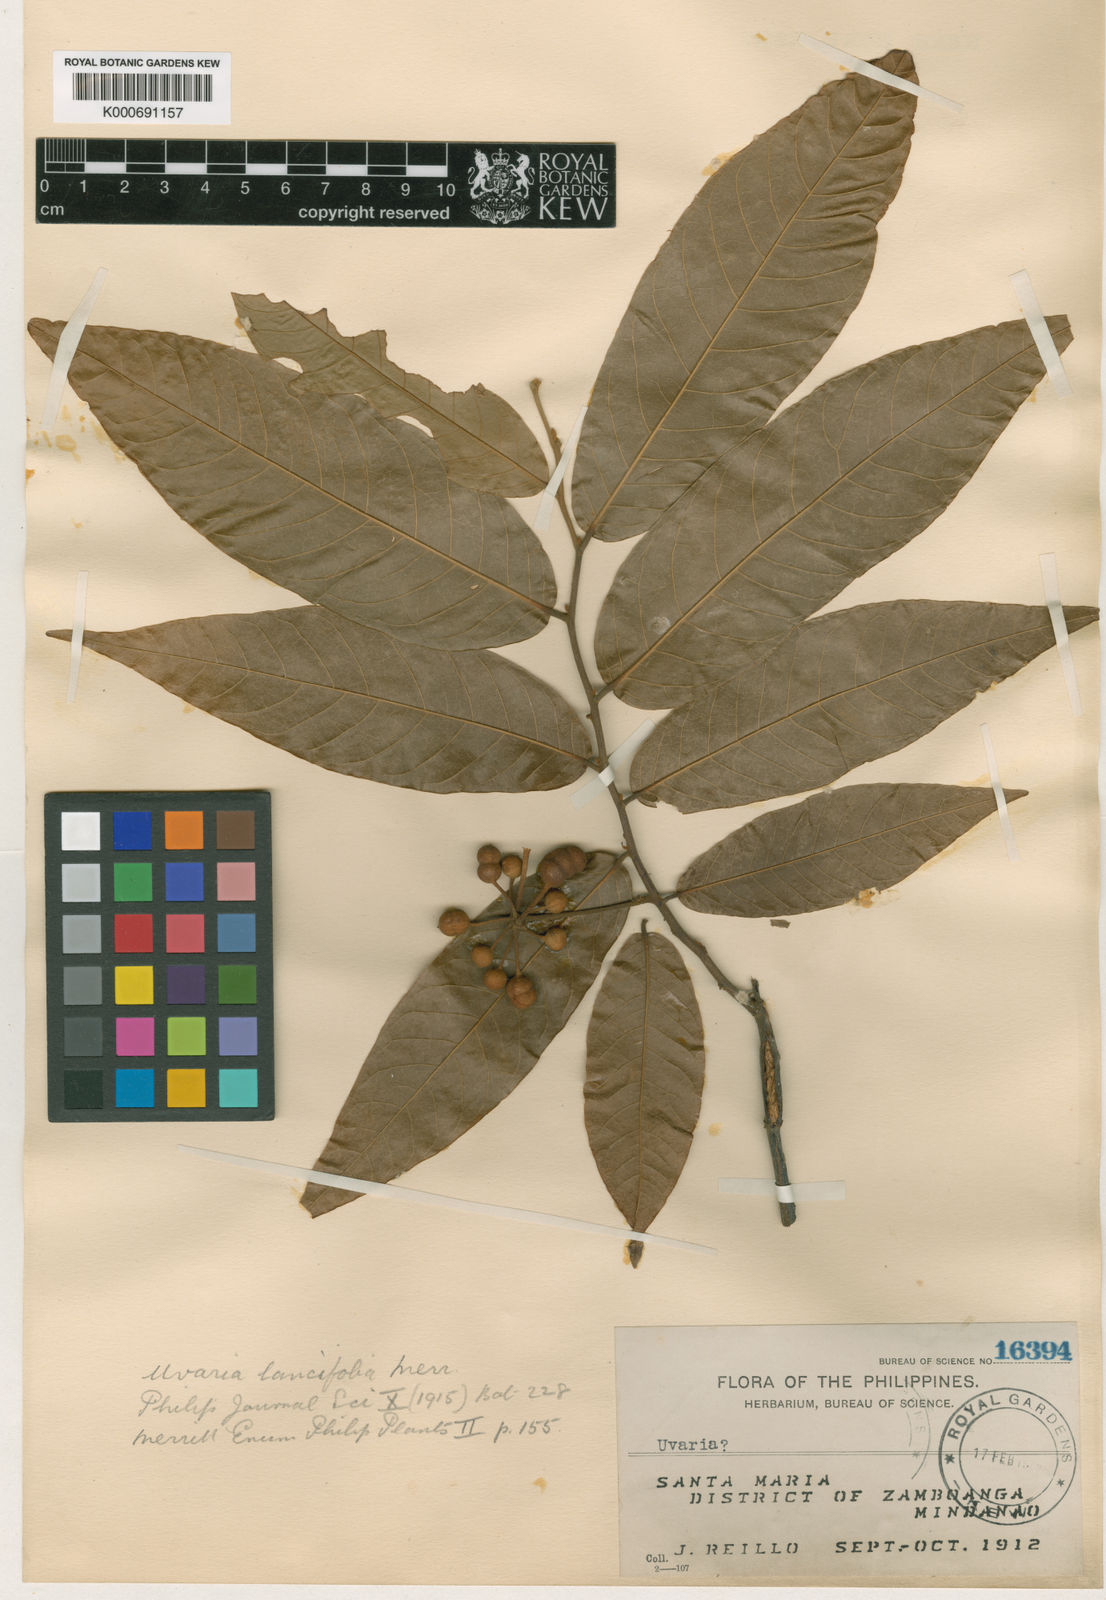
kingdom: Plantae
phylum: Tracheophyta
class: Magnoliopsida
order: Magnoliales
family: Annonaceae
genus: Uvaria
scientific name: Uvaria lancifolia
